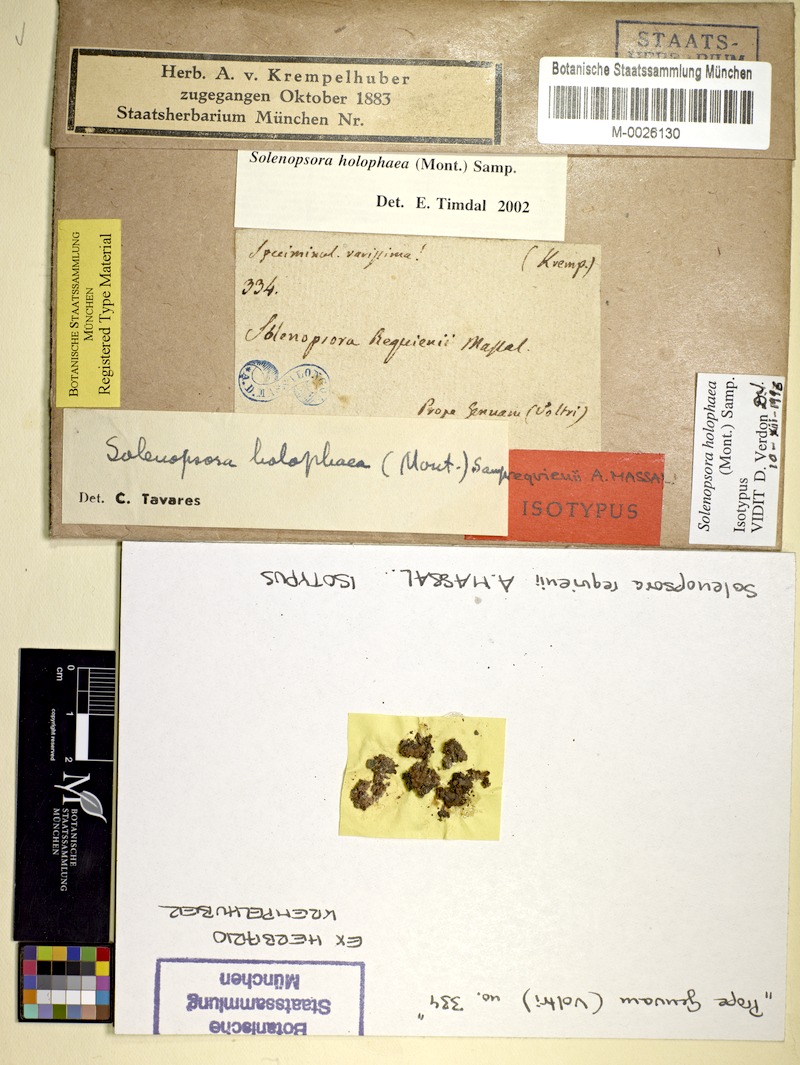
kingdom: Fungi
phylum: Ascomycota
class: Lecanoromycetes
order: Lecanorales
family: Catillariaceae
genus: Solenopsora
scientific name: Solenopsora holophaea
